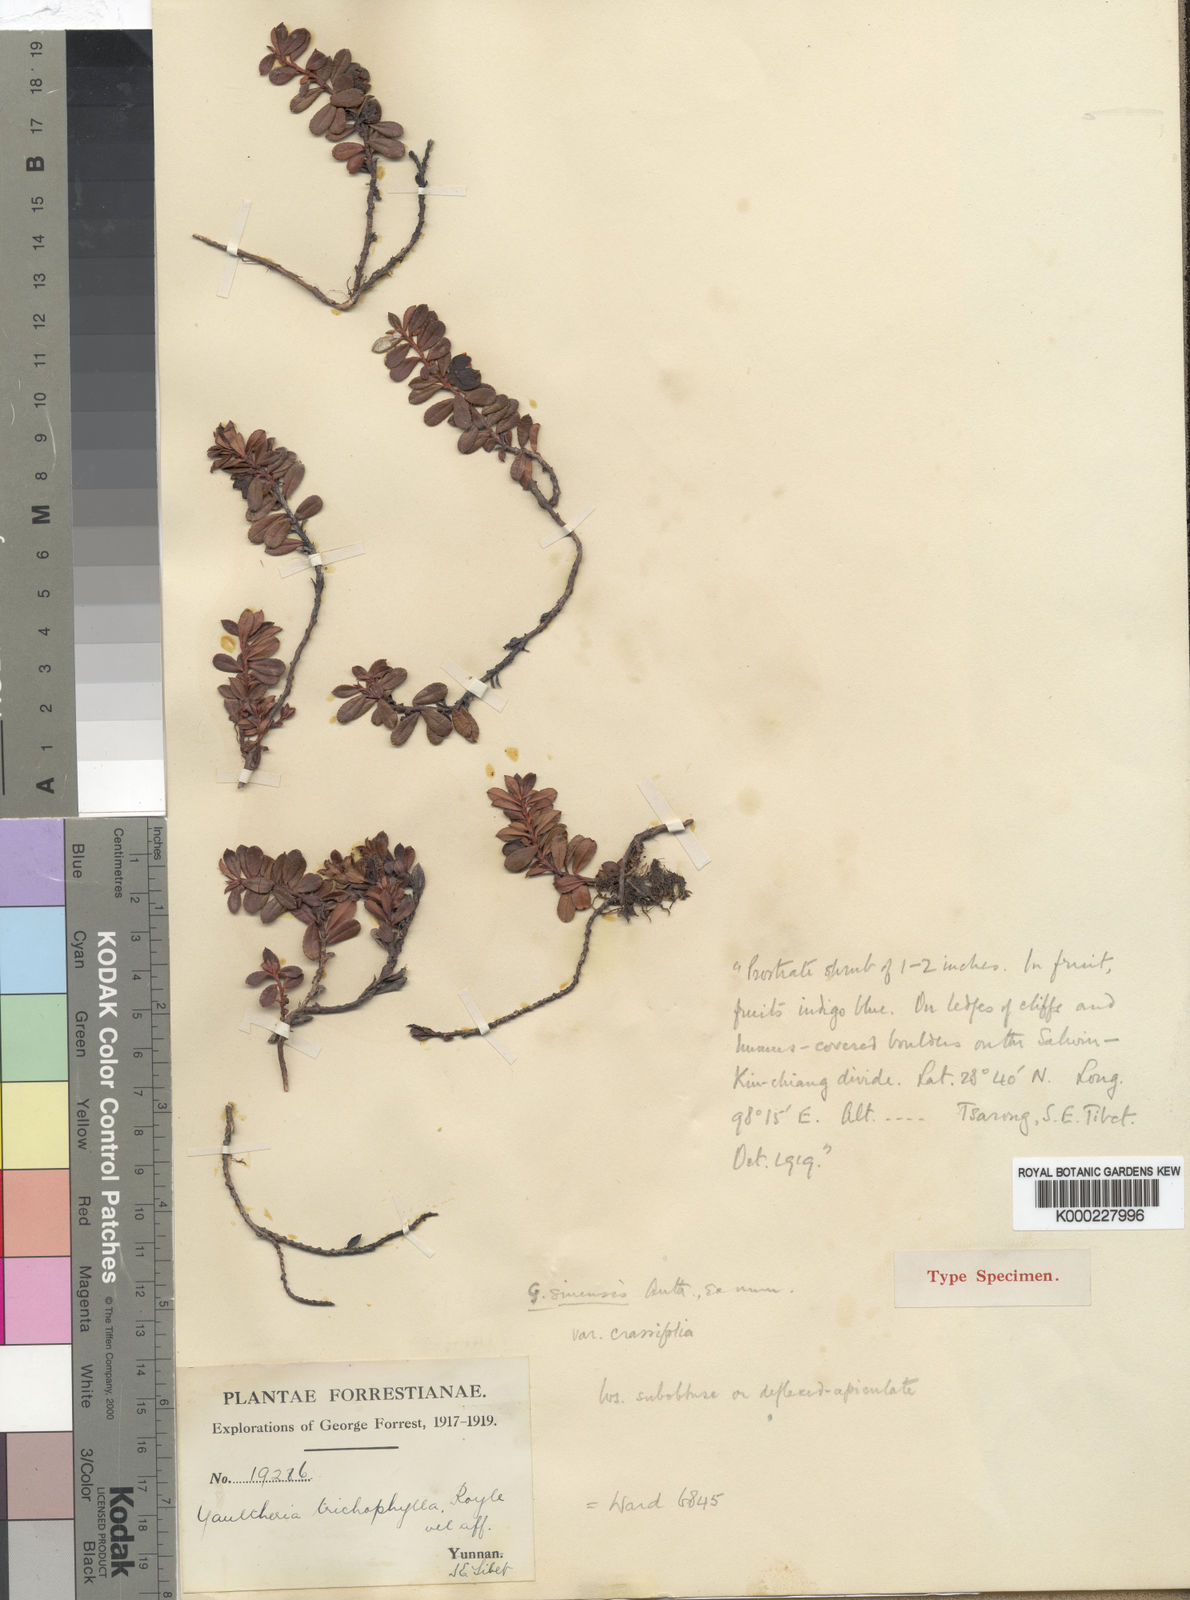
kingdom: Plantae
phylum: Tracheophyta
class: Magnoliopsida
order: Ericales
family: Ericaceae
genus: Gaultheria
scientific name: Gaultheria crassifolia
